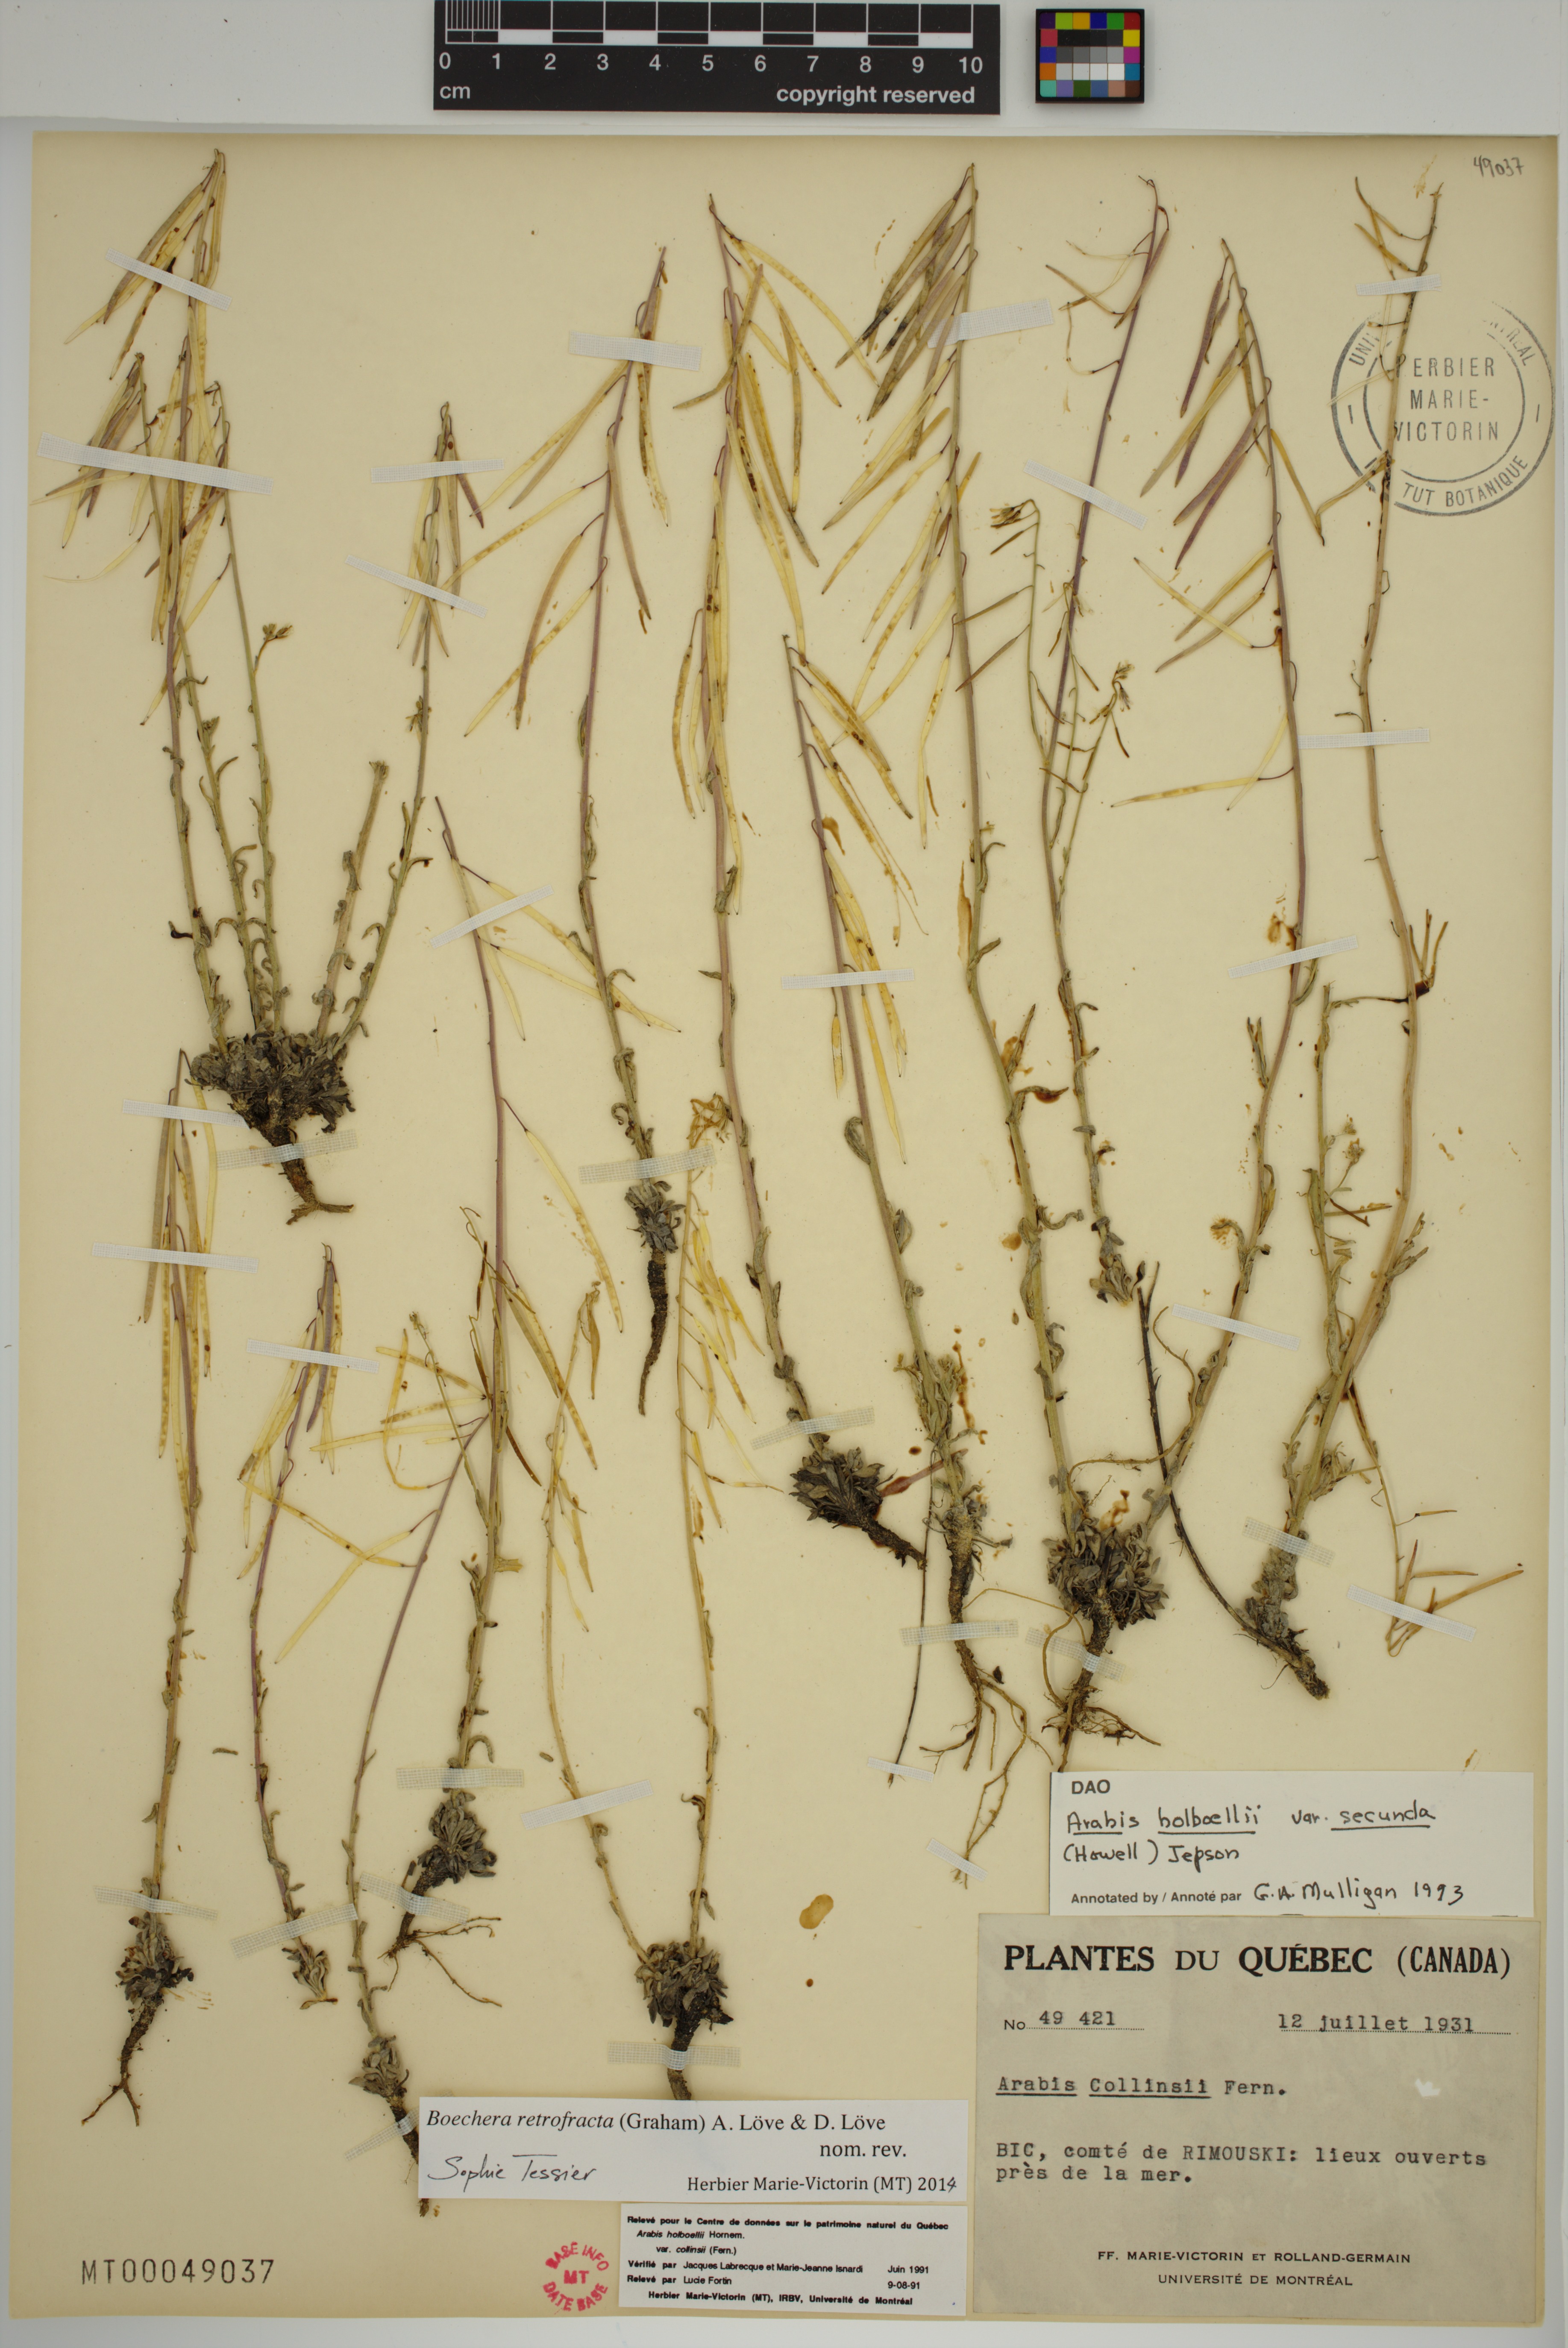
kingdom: Plantae
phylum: Tracheophyta
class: Magnoliopsida
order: Brassicales
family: Brassicaceae
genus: Boechera
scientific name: Boechera retrofracta
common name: Dangling suncress
